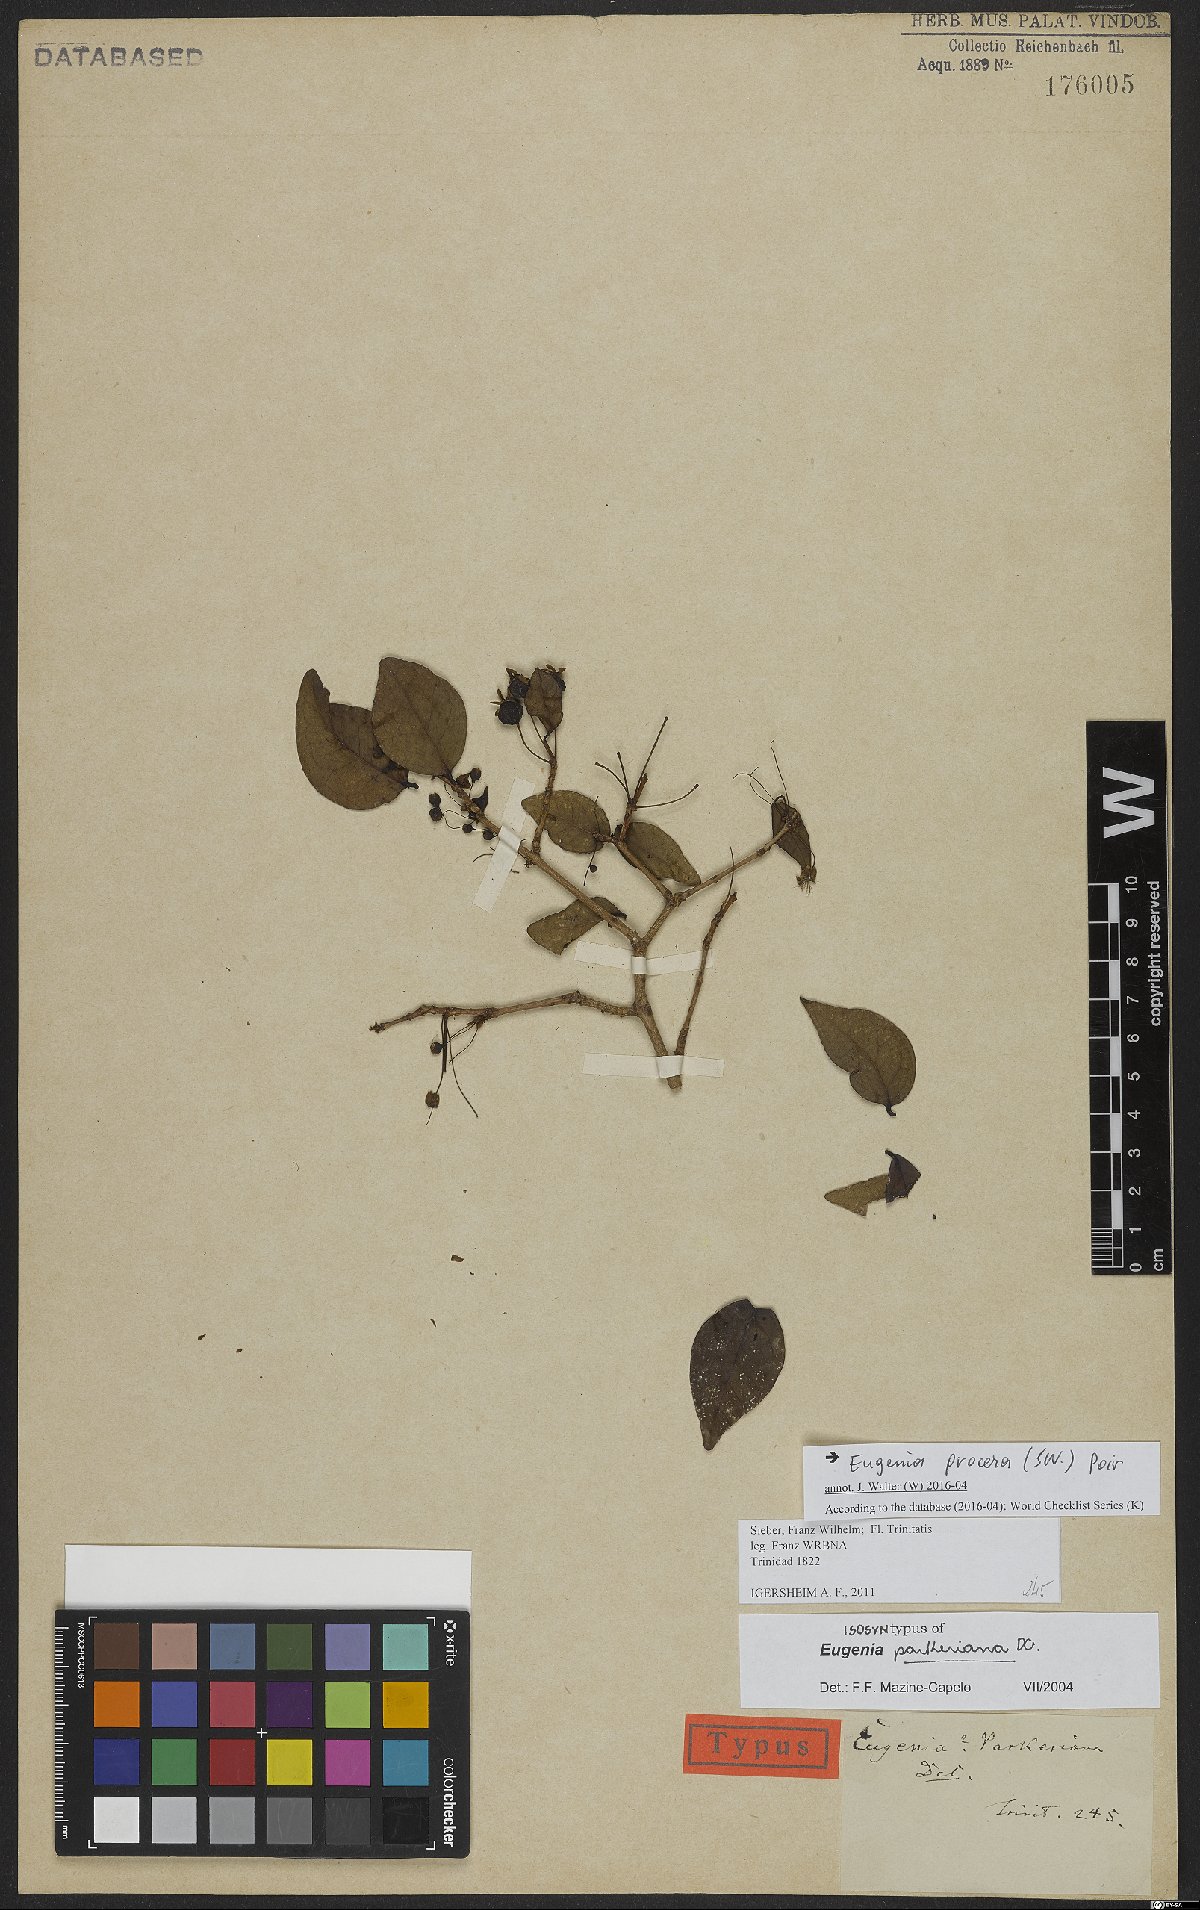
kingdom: Plantae
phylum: Tracheophyta
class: Magnoliopsida
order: Myrtales
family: Myrtaceae
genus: Eugenia
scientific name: Eugenia procera
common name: Bastard blackberry
